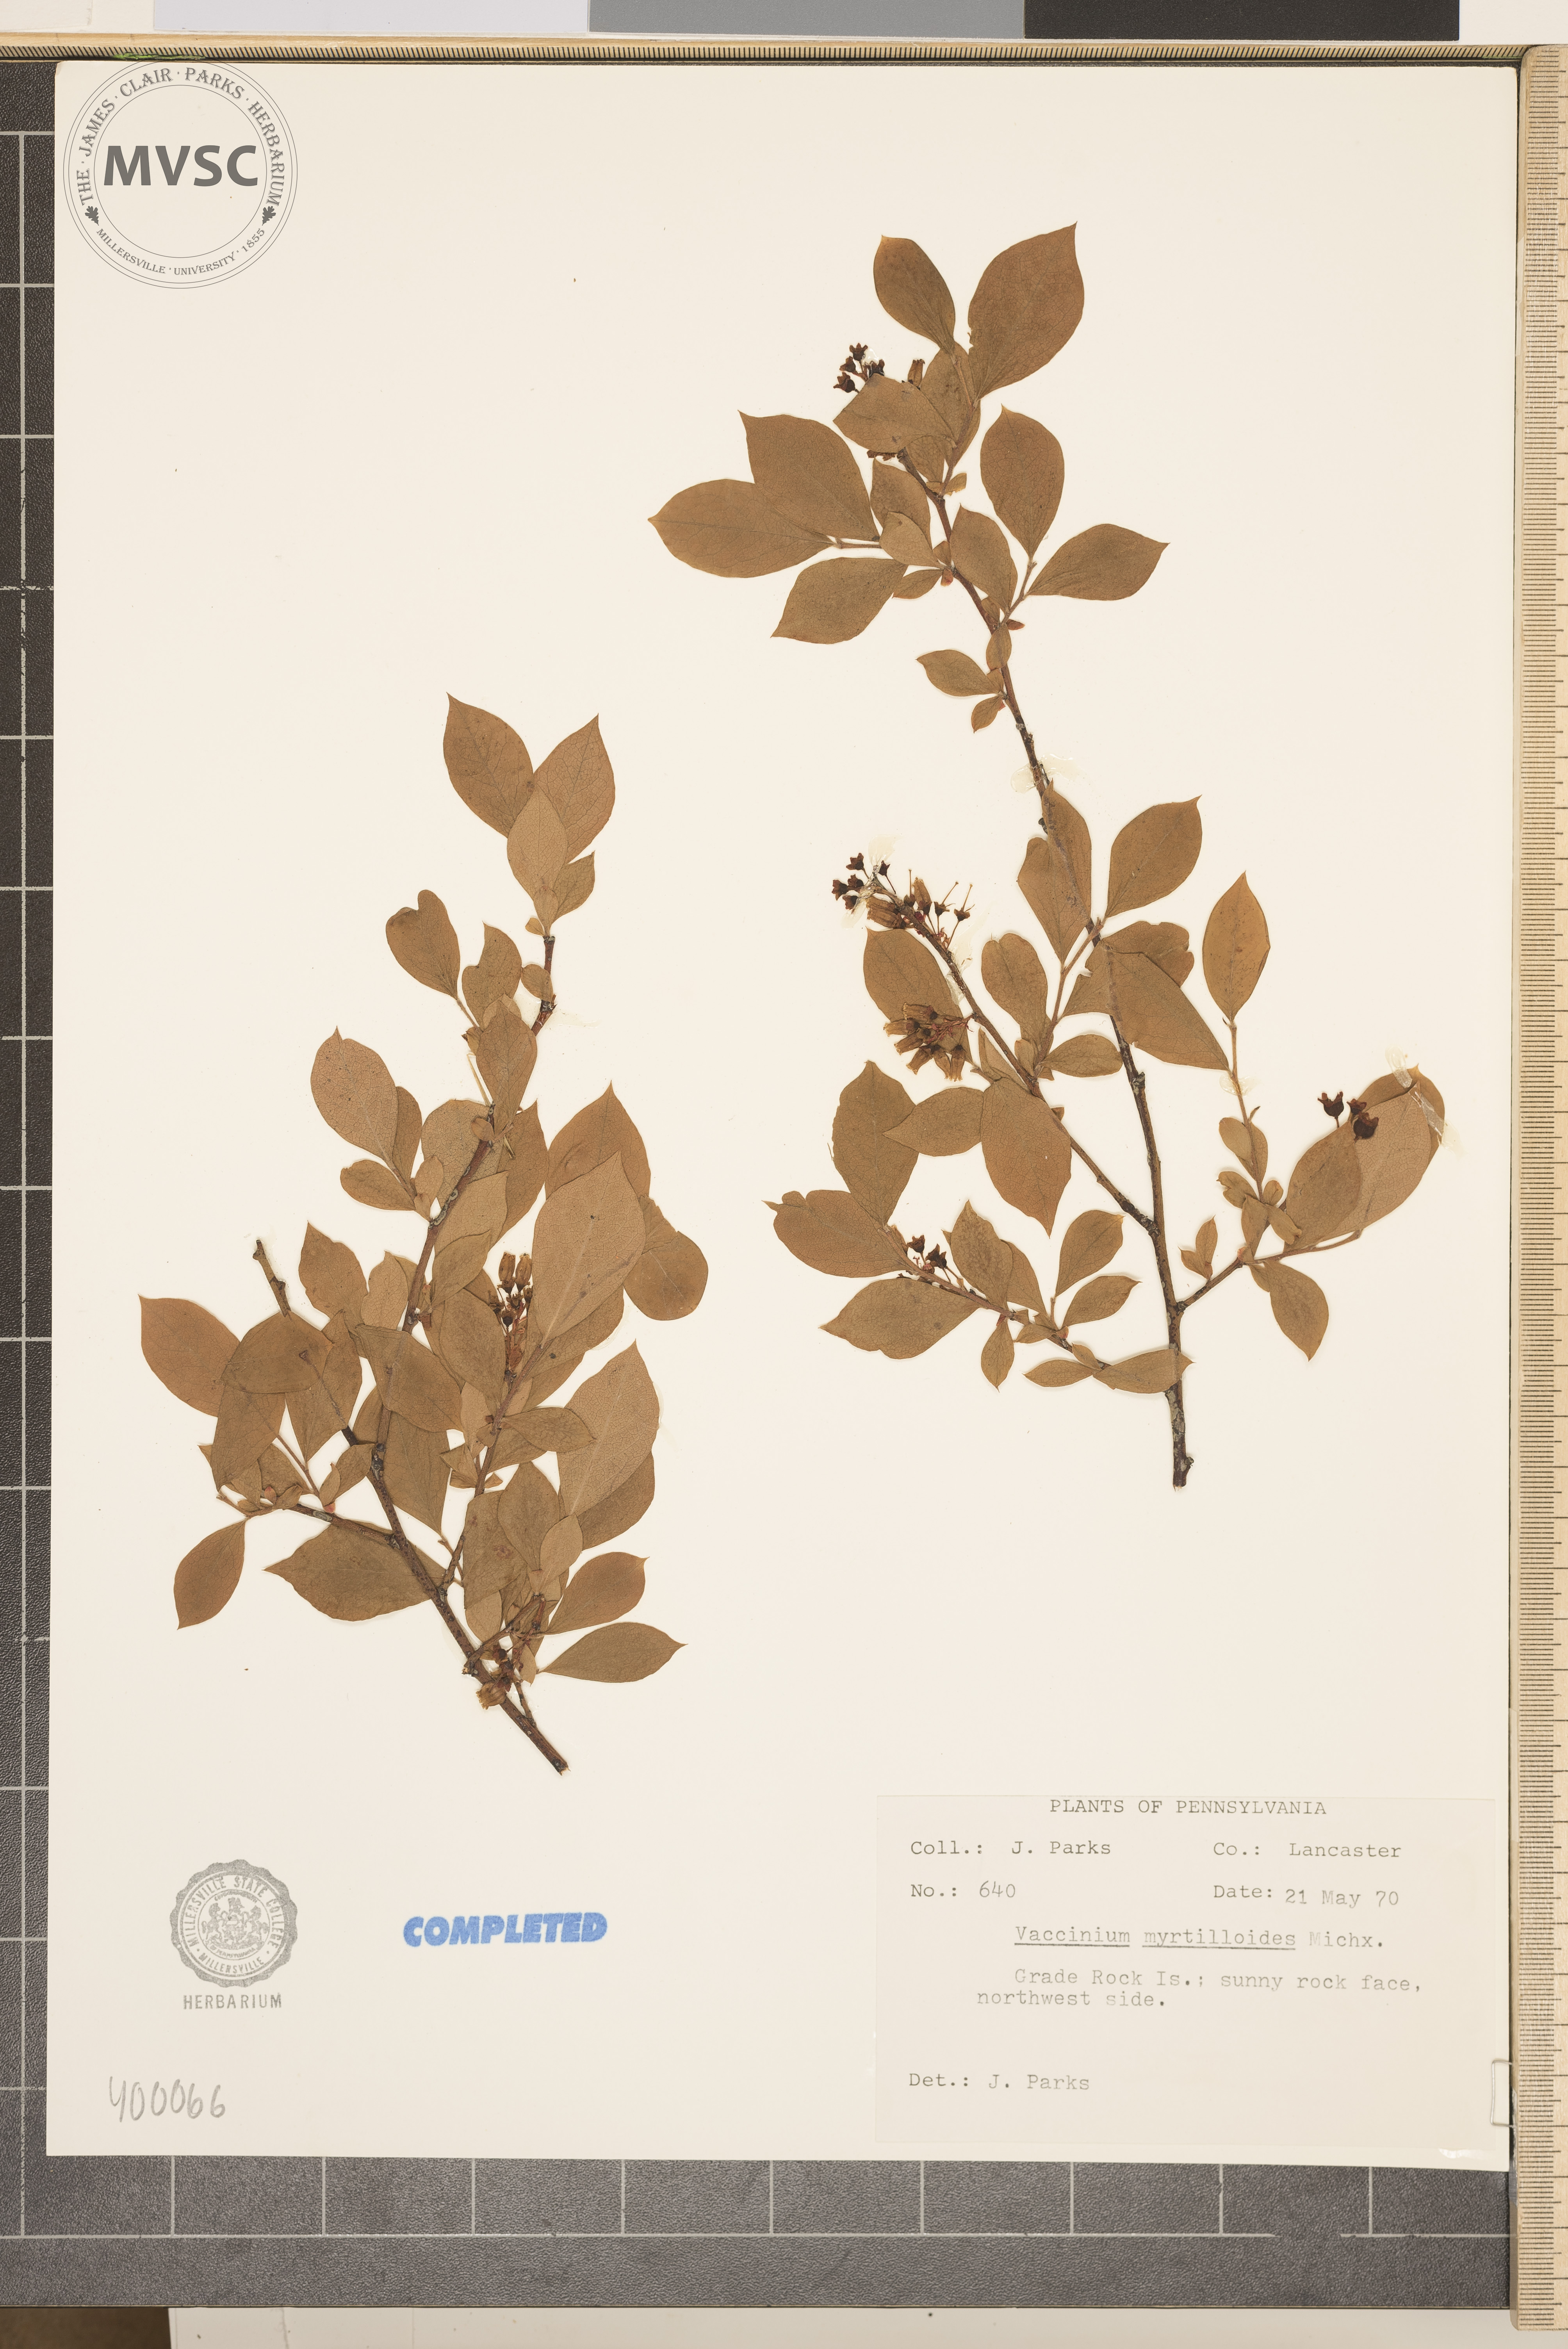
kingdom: Plantae
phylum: Tracheophyta
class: Magnoliopsida
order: Ericales
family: Ericaceae
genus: Vaccinium
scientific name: Vaccinium myrtilloides
